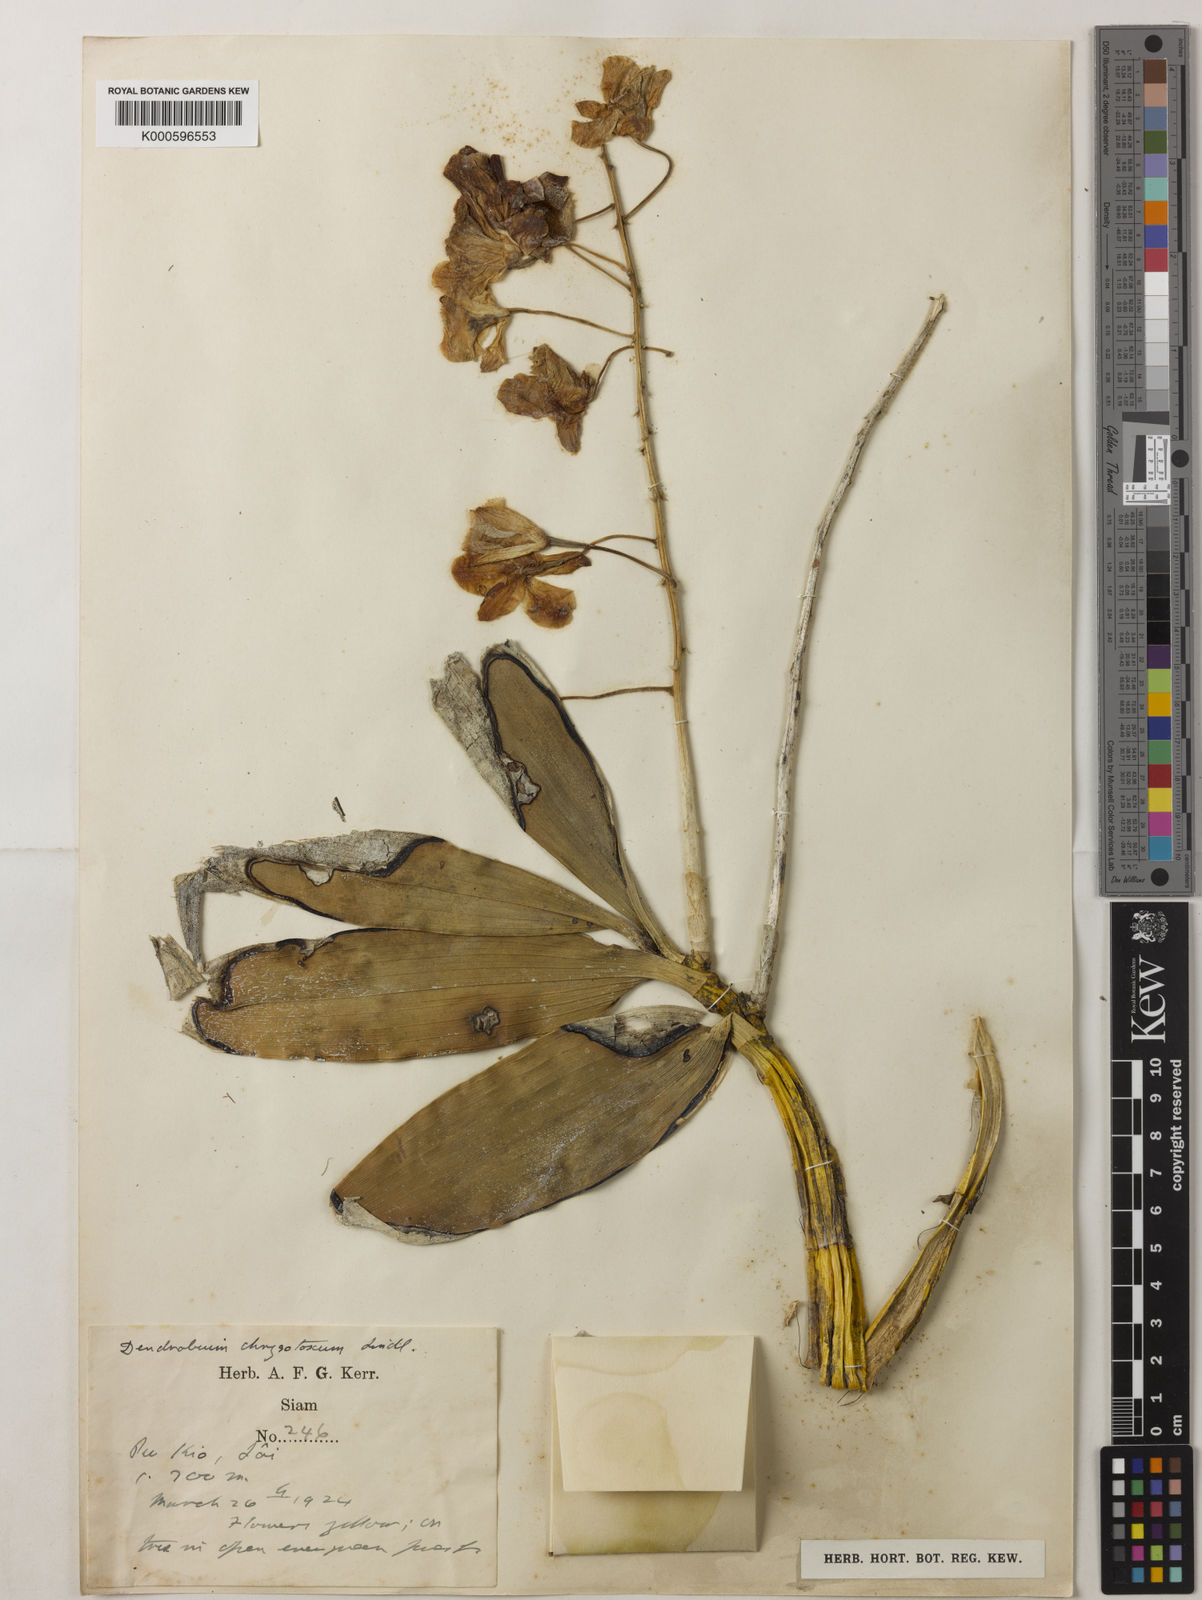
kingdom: Plantae
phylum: Tracheophyta
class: Liliopsida
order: Asparagales
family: Orchidaceae
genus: Dendrobium
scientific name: Dendrobium chrysotoxum
